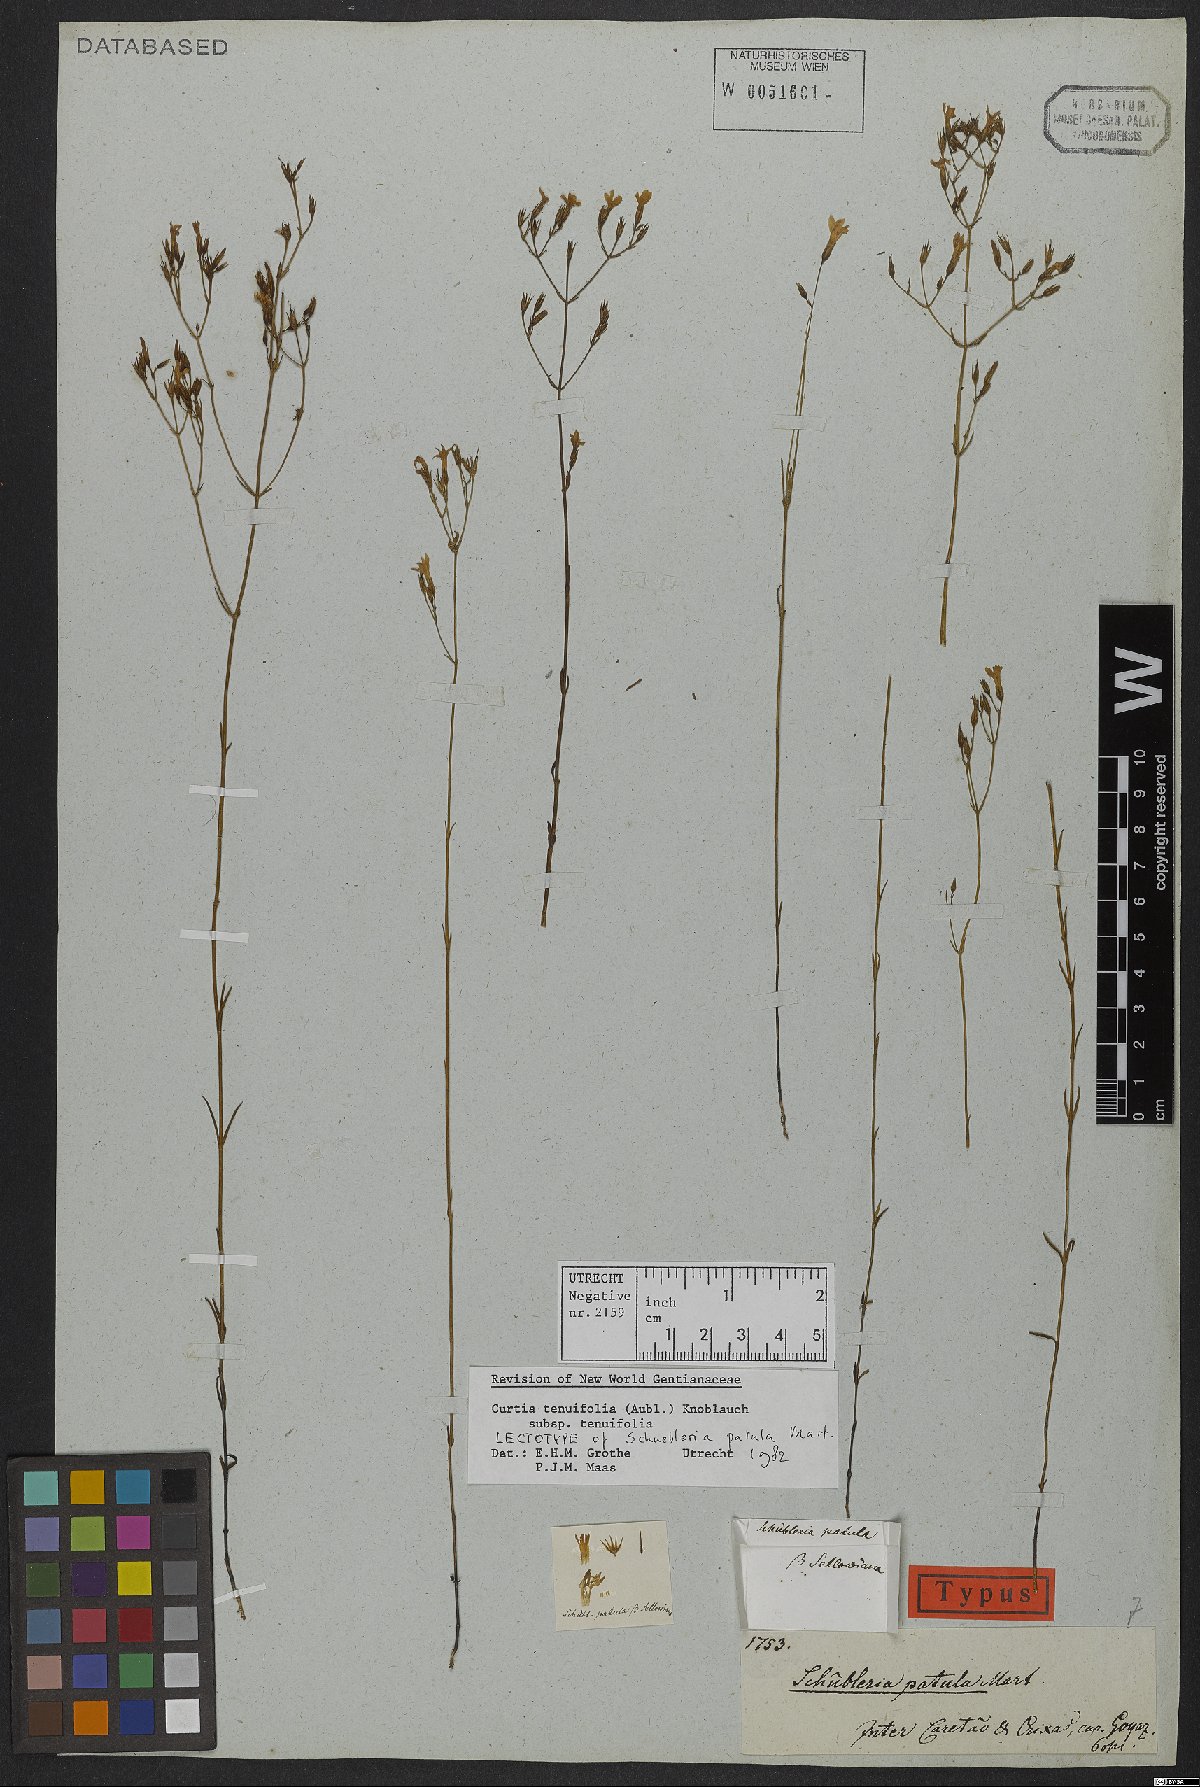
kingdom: Plantae
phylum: Tracheophyta
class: Magnoliopsida
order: Gentianales
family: Gentianaceae
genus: Curtia
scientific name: Curtia tenuifolia
